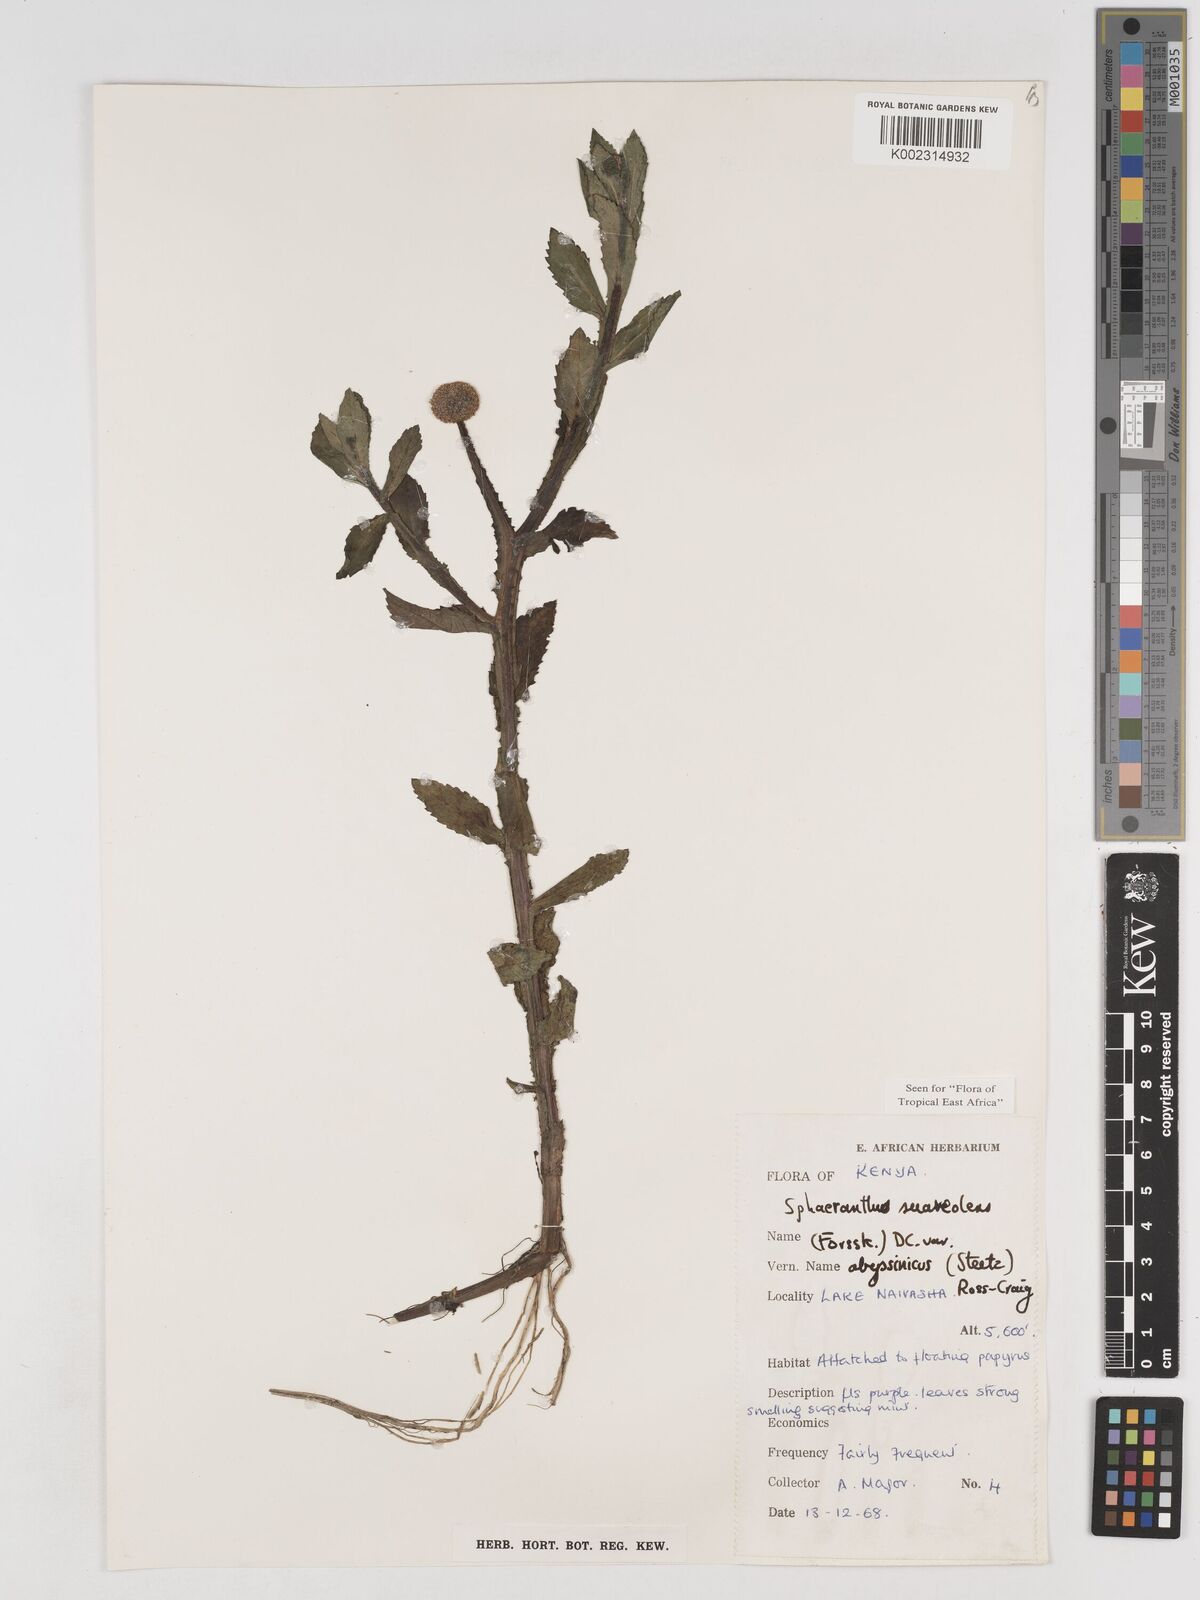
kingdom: Plantae
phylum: Tracheophyta
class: Magnoliopsida
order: Asterales
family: Asteraceae
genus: Sphaeranthus
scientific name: Sphaeranthus suaveolens
